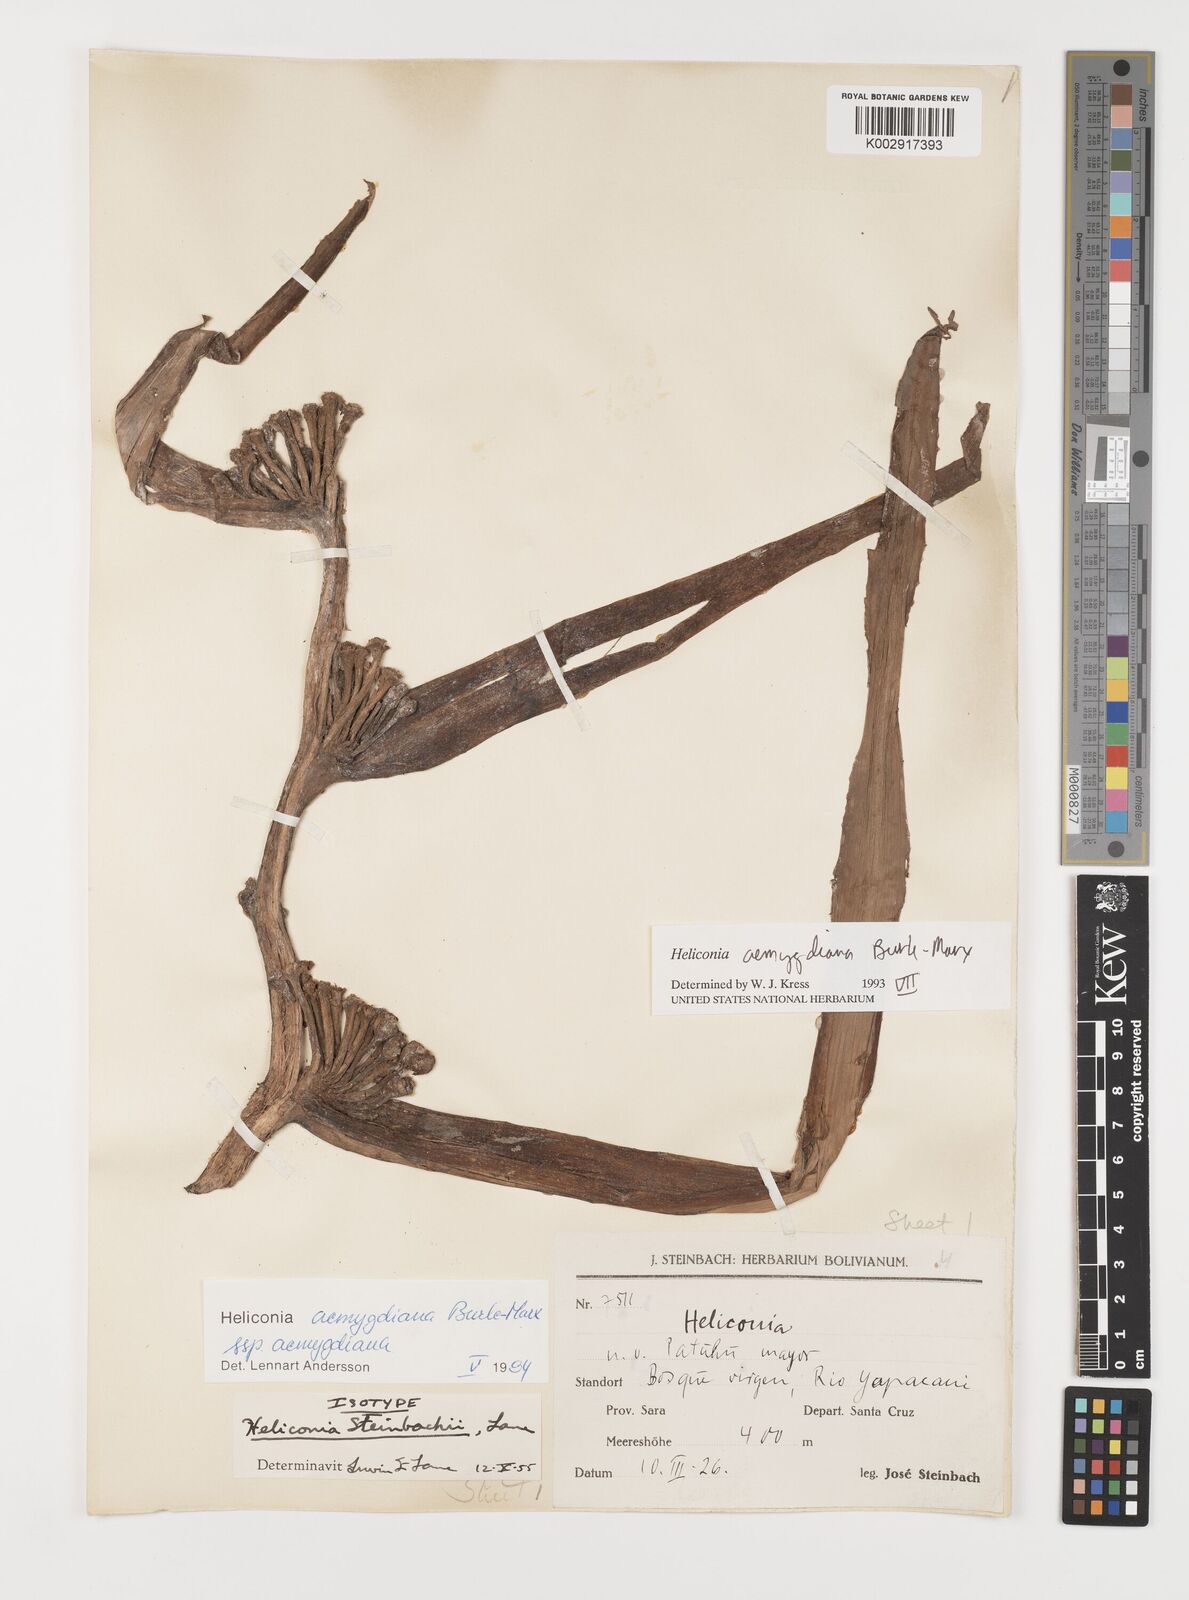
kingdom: Plantae
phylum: Tracheophyta
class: Liliopsida
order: Zingiberales
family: Heliconiaceae
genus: Heliconia
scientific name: Heliconia aemygdiana
